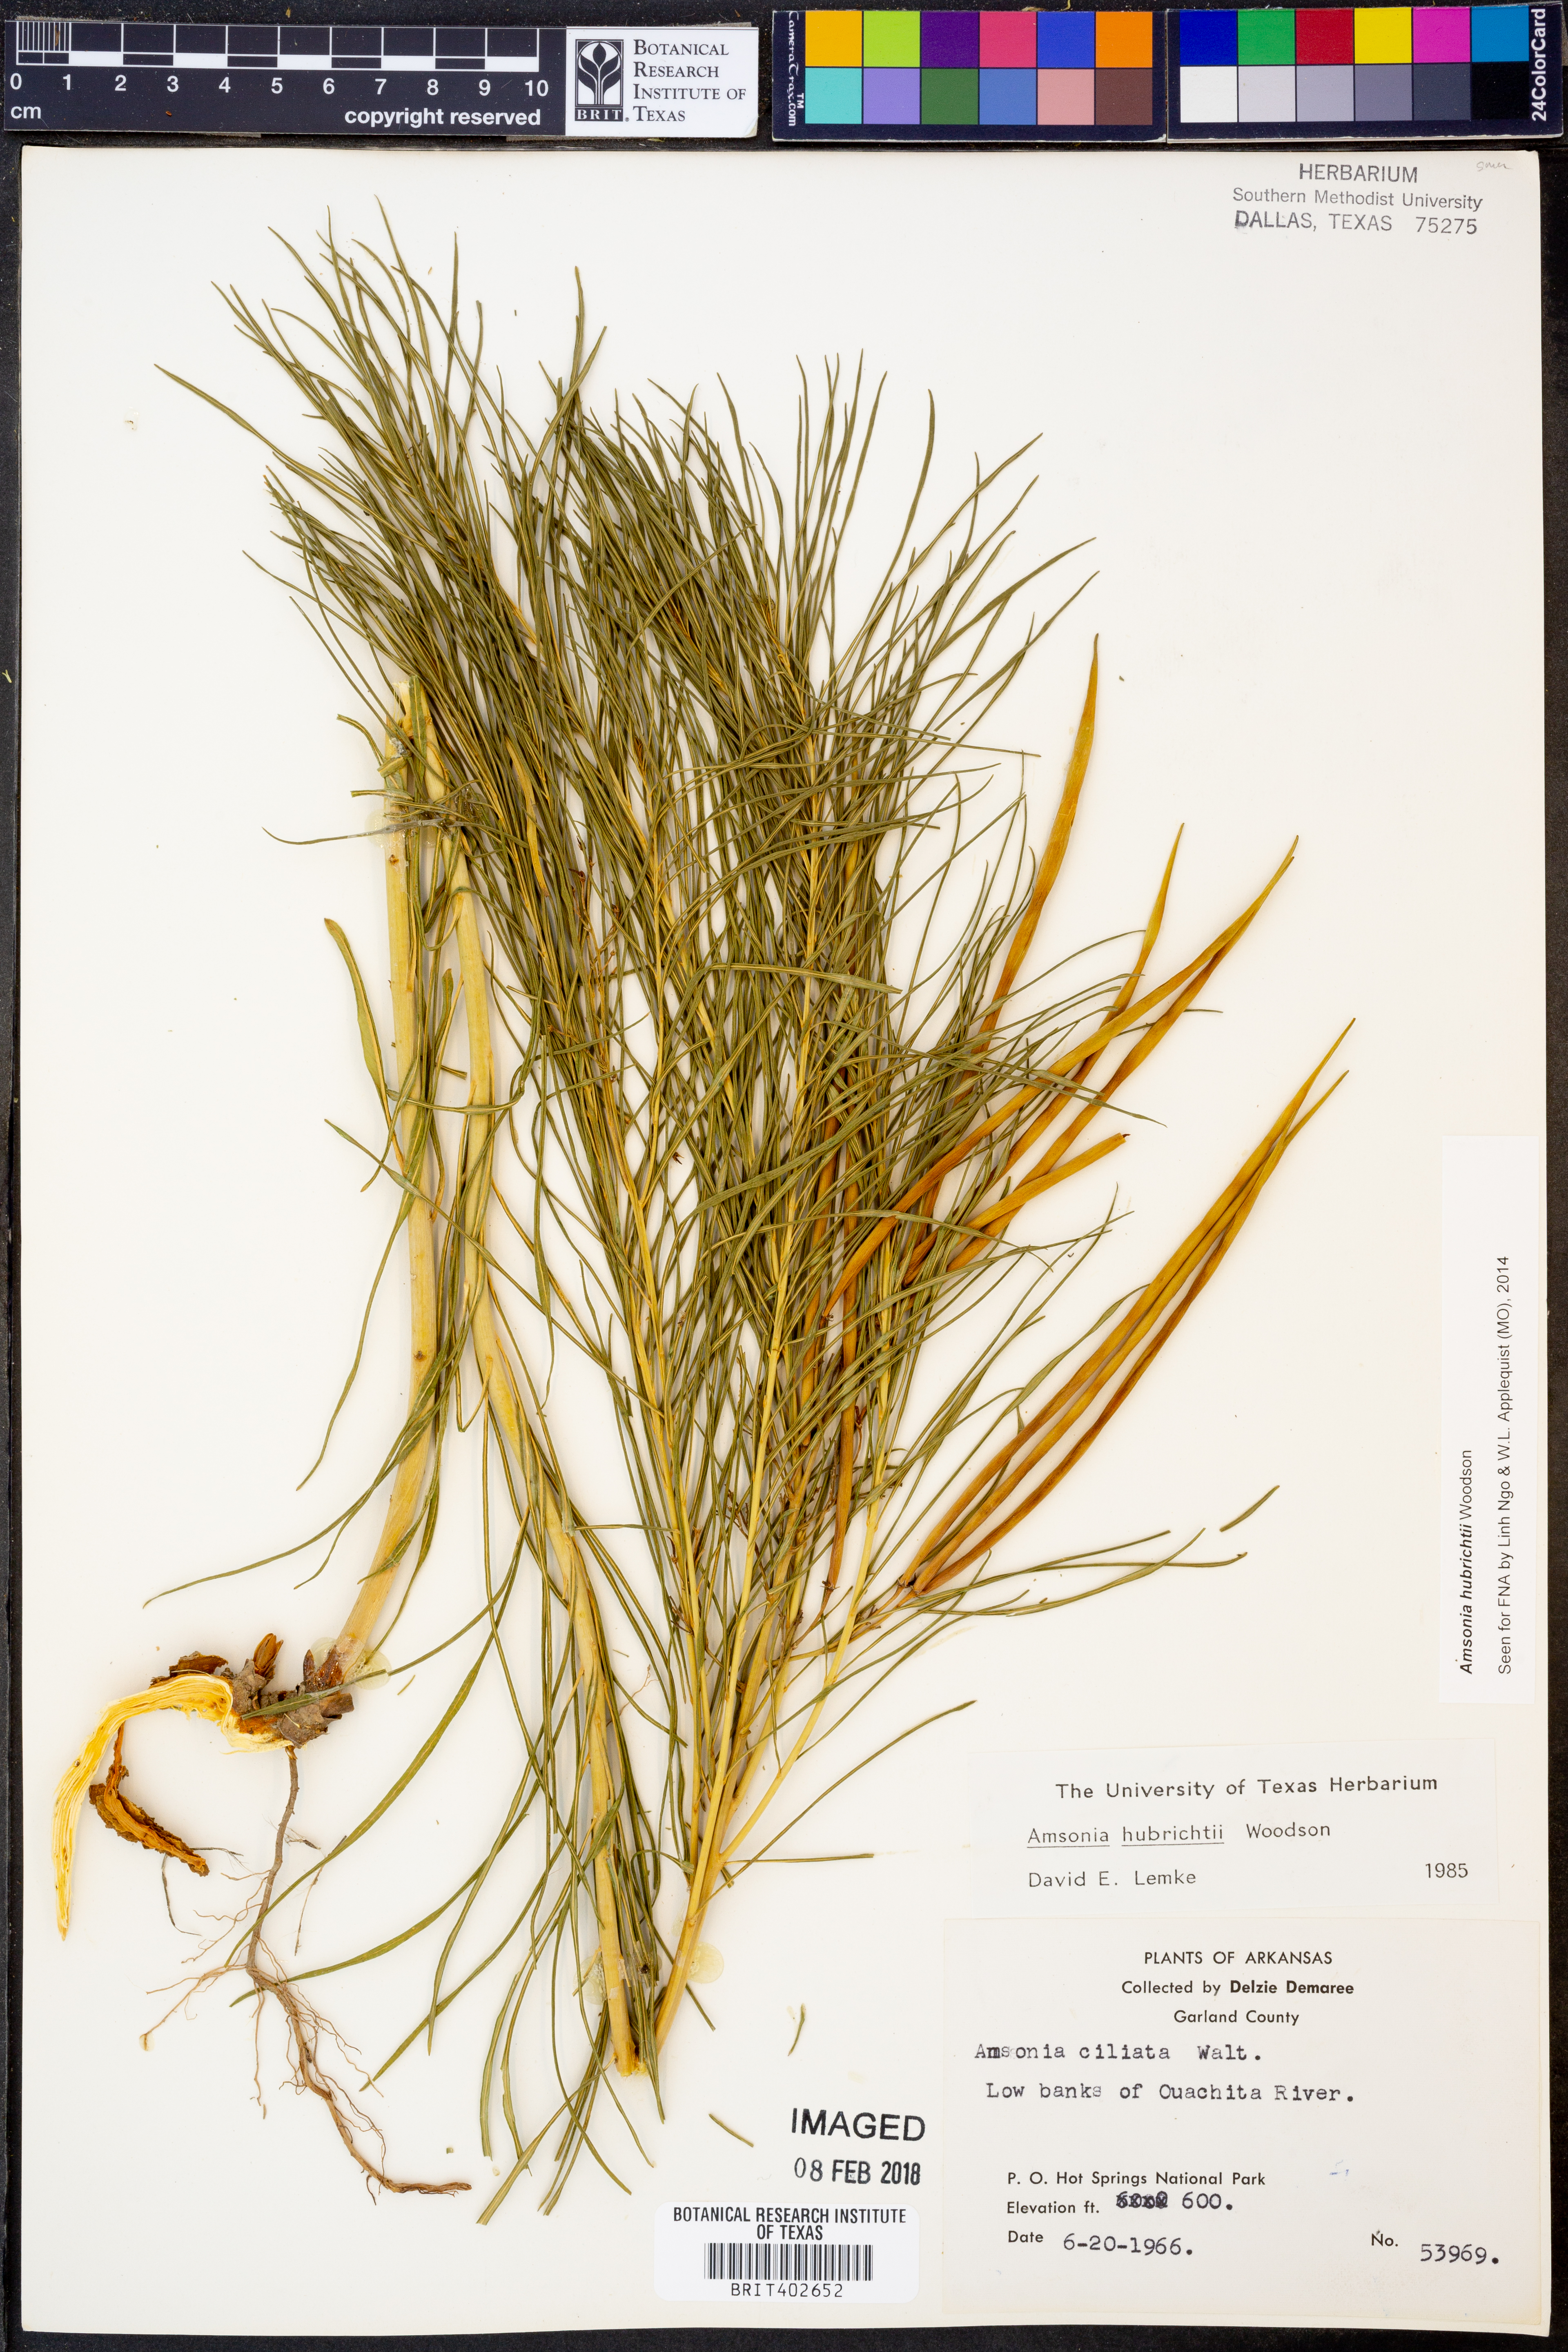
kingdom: Plantae
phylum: Tracheophyta
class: Magnoliopsida
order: Gentianales
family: Apocynaceae
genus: Amsonia
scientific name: Amsonia hubrichtii
